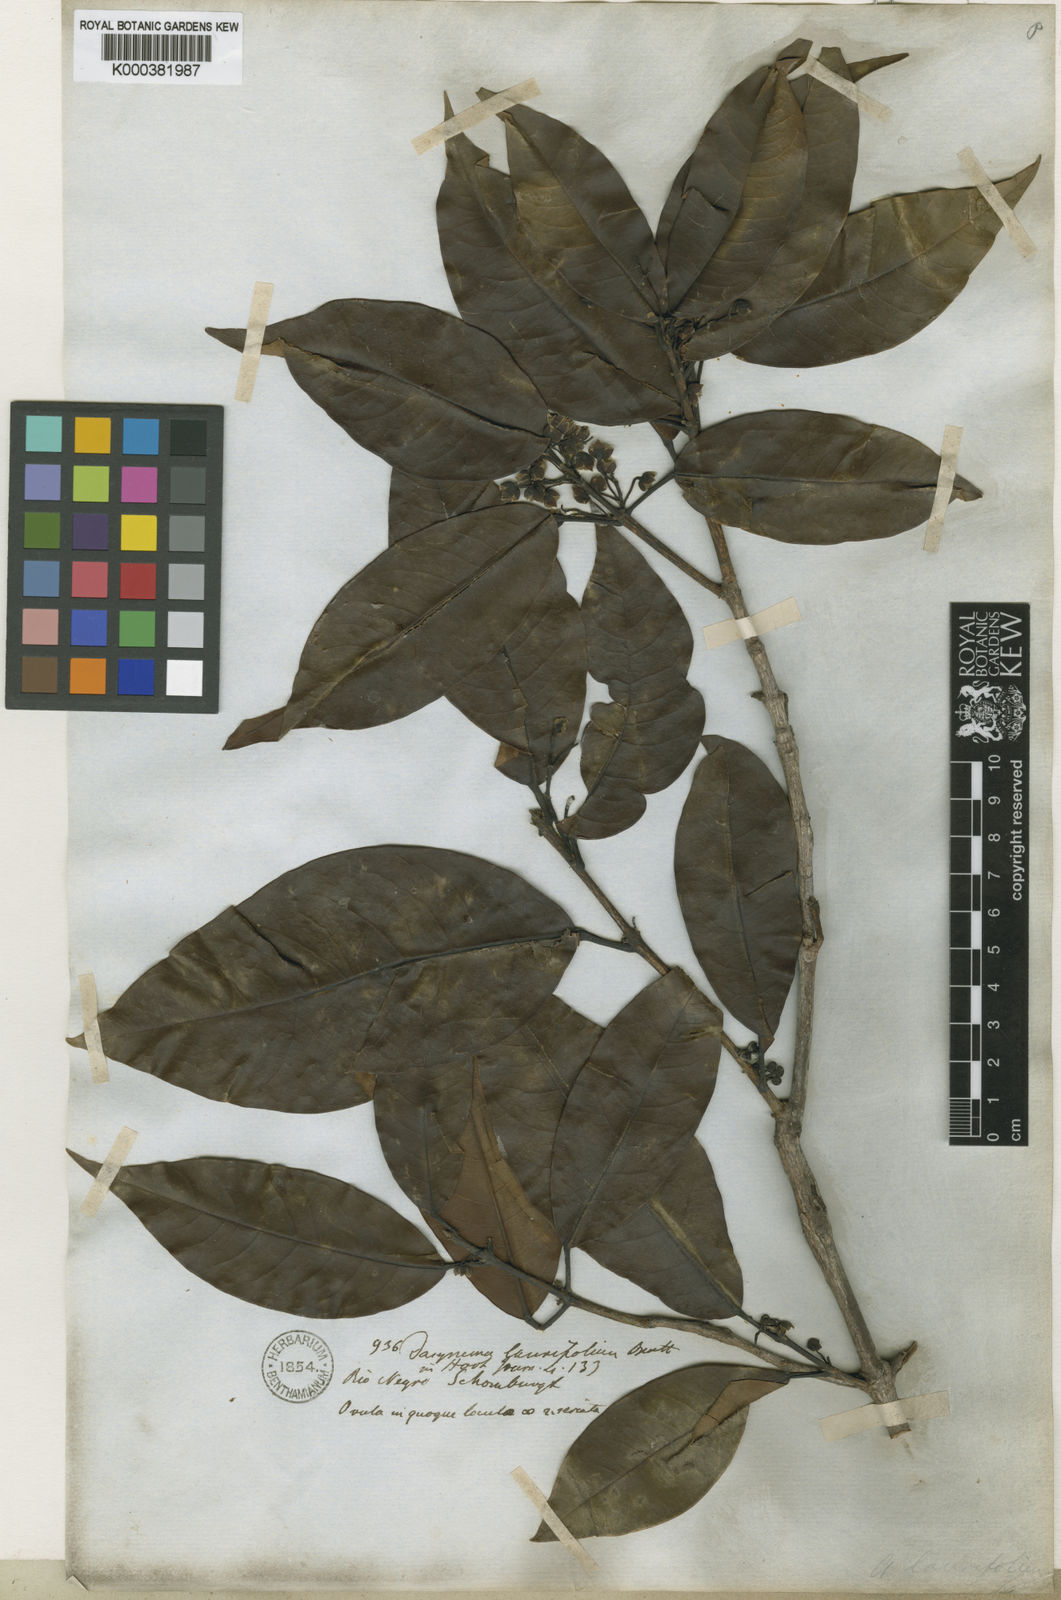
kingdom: Plantae
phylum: Tracheophyta
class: Magnoliopsida
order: Oxalidales
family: Elaeocarpaceae
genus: Sloanea
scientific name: Sloanea laurifolia
